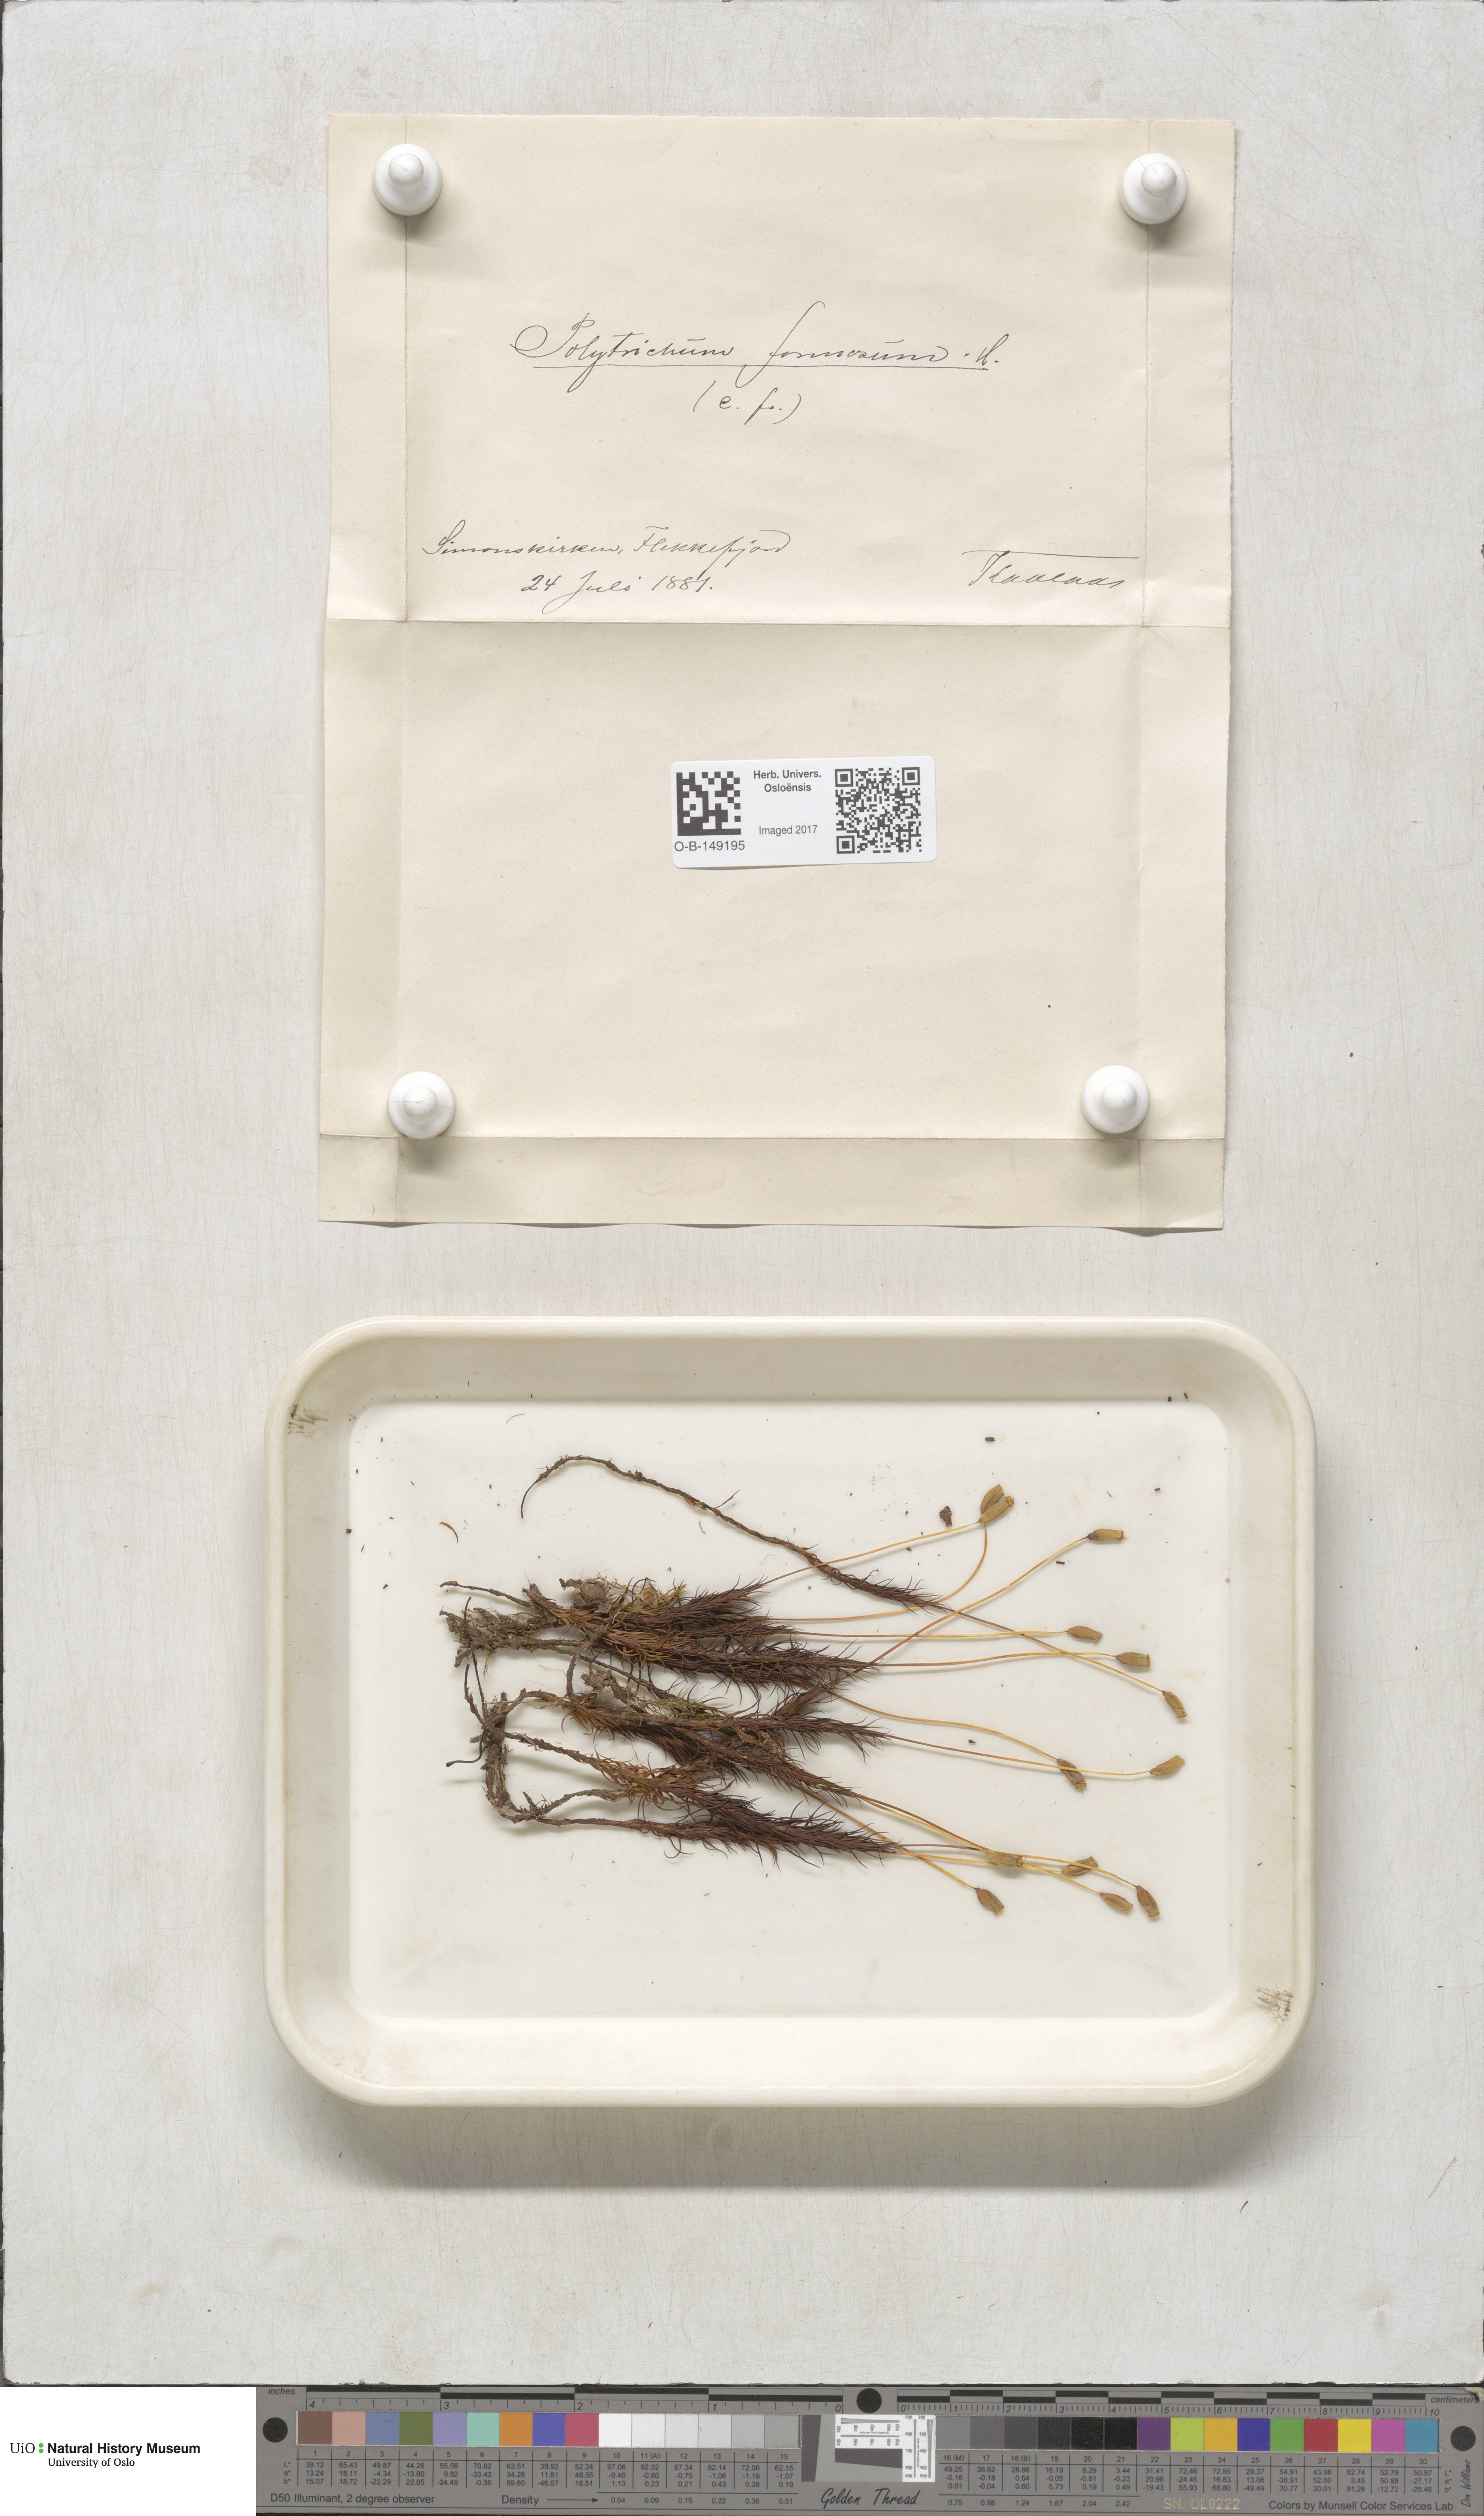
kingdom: Plantae
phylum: Bryophyta
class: Polytrichopsida
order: Polytrichales
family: Polytrichaceae
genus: Polytrichum
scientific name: Polytrichum formosum
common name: Bank haircap moss
